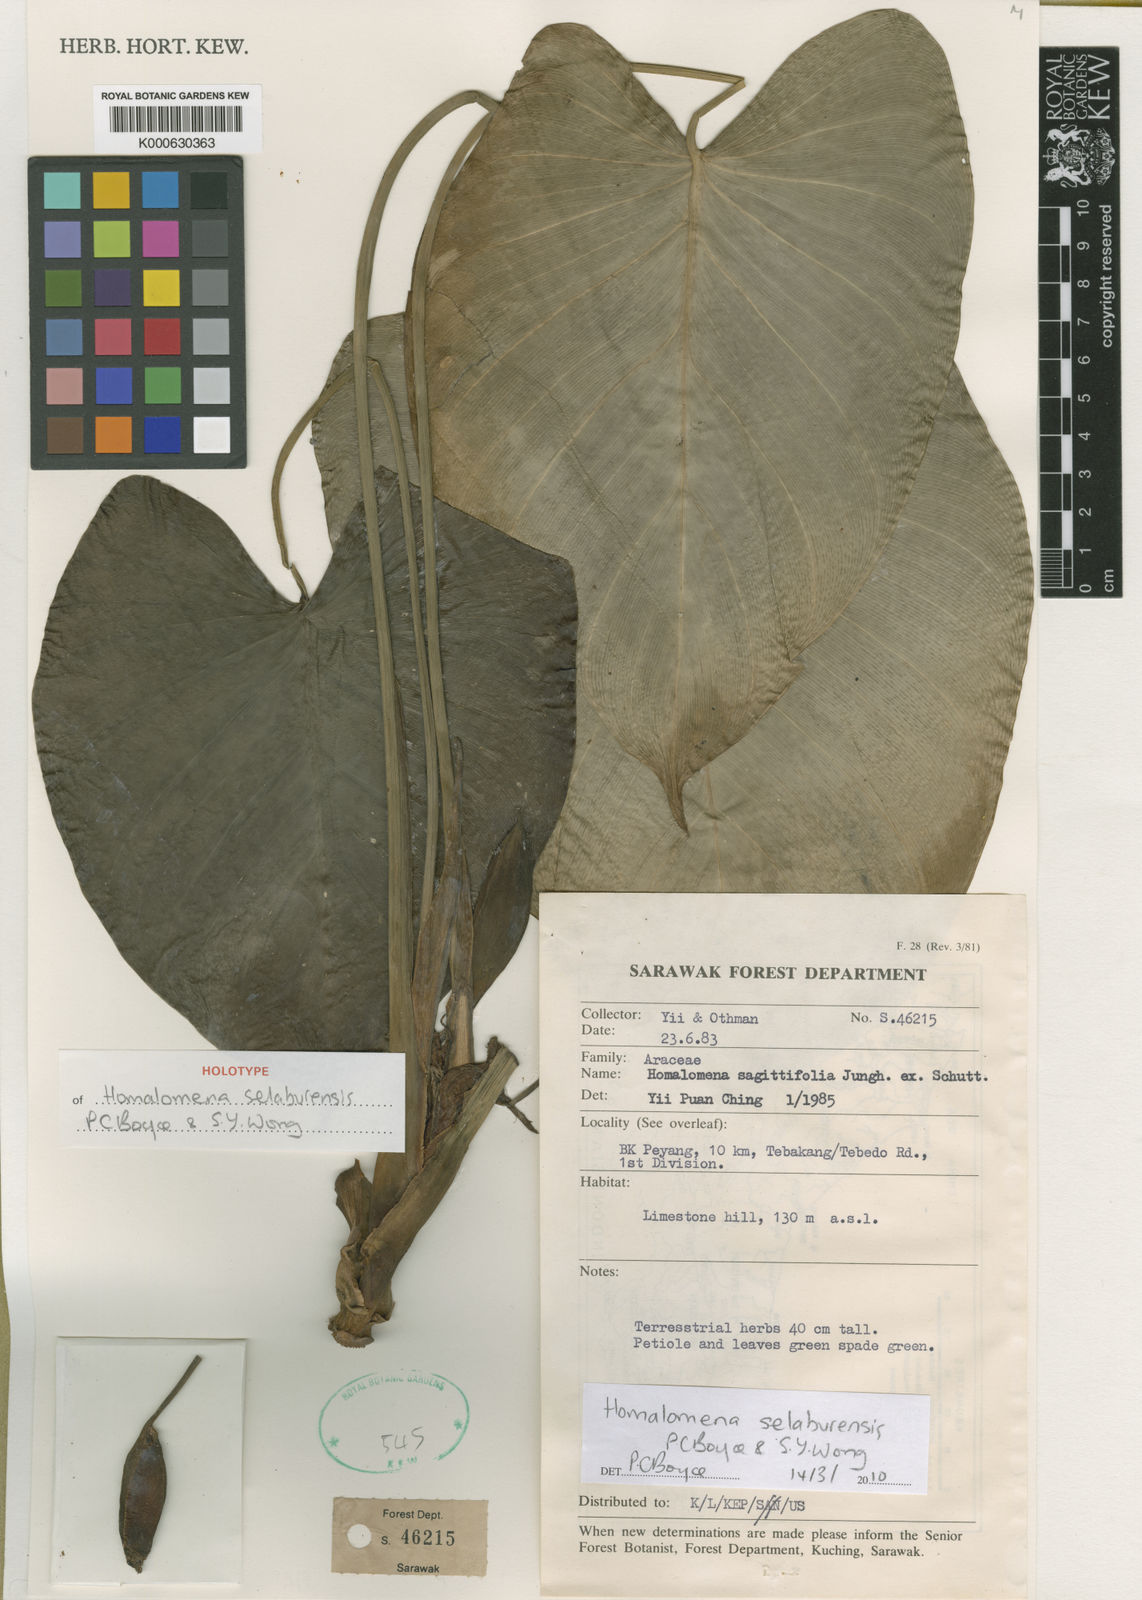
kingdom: Plantae
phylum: Tracheophyta
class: Liliopsida
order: Alismatales
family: Araceae
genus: Homalomena
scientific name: Homalomena selaburensis
